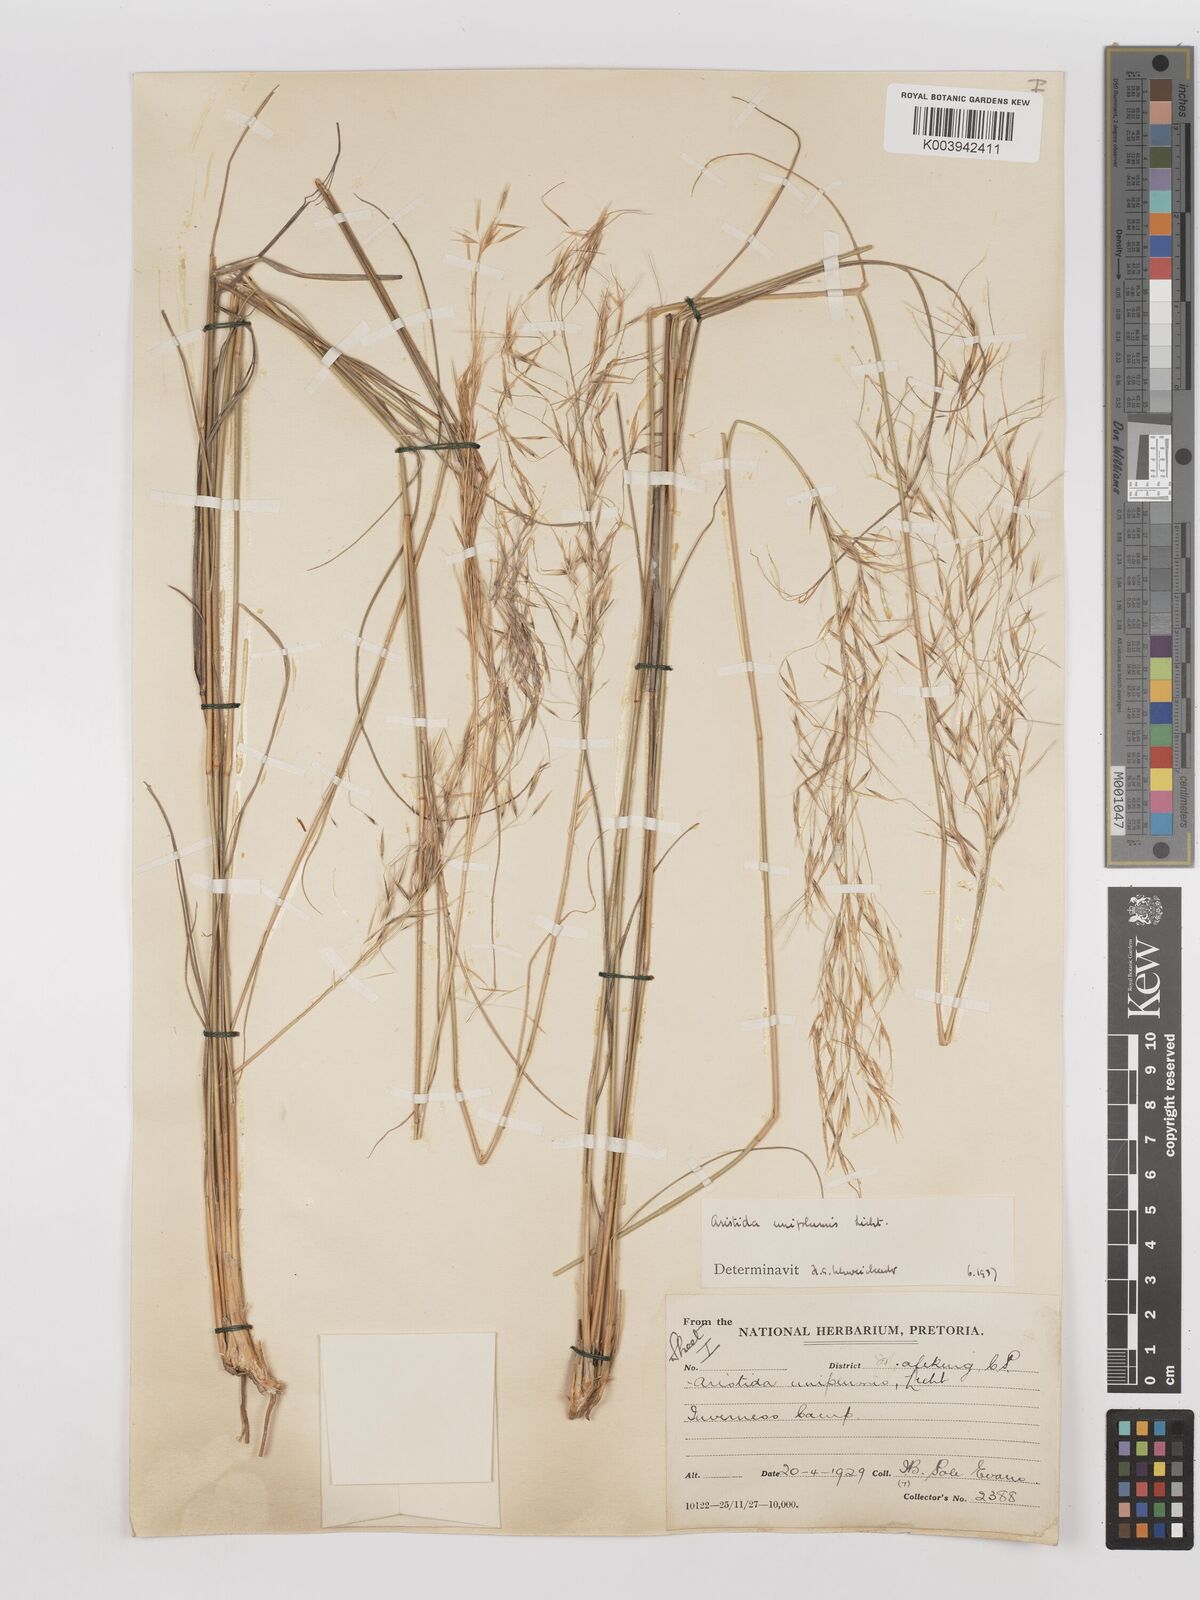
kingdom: Plantae
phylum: Tracheophyta
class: Liliopsida
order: Poales
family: Poaceae
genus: Stipagrostis
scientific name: Stipagrostis uniplumis
